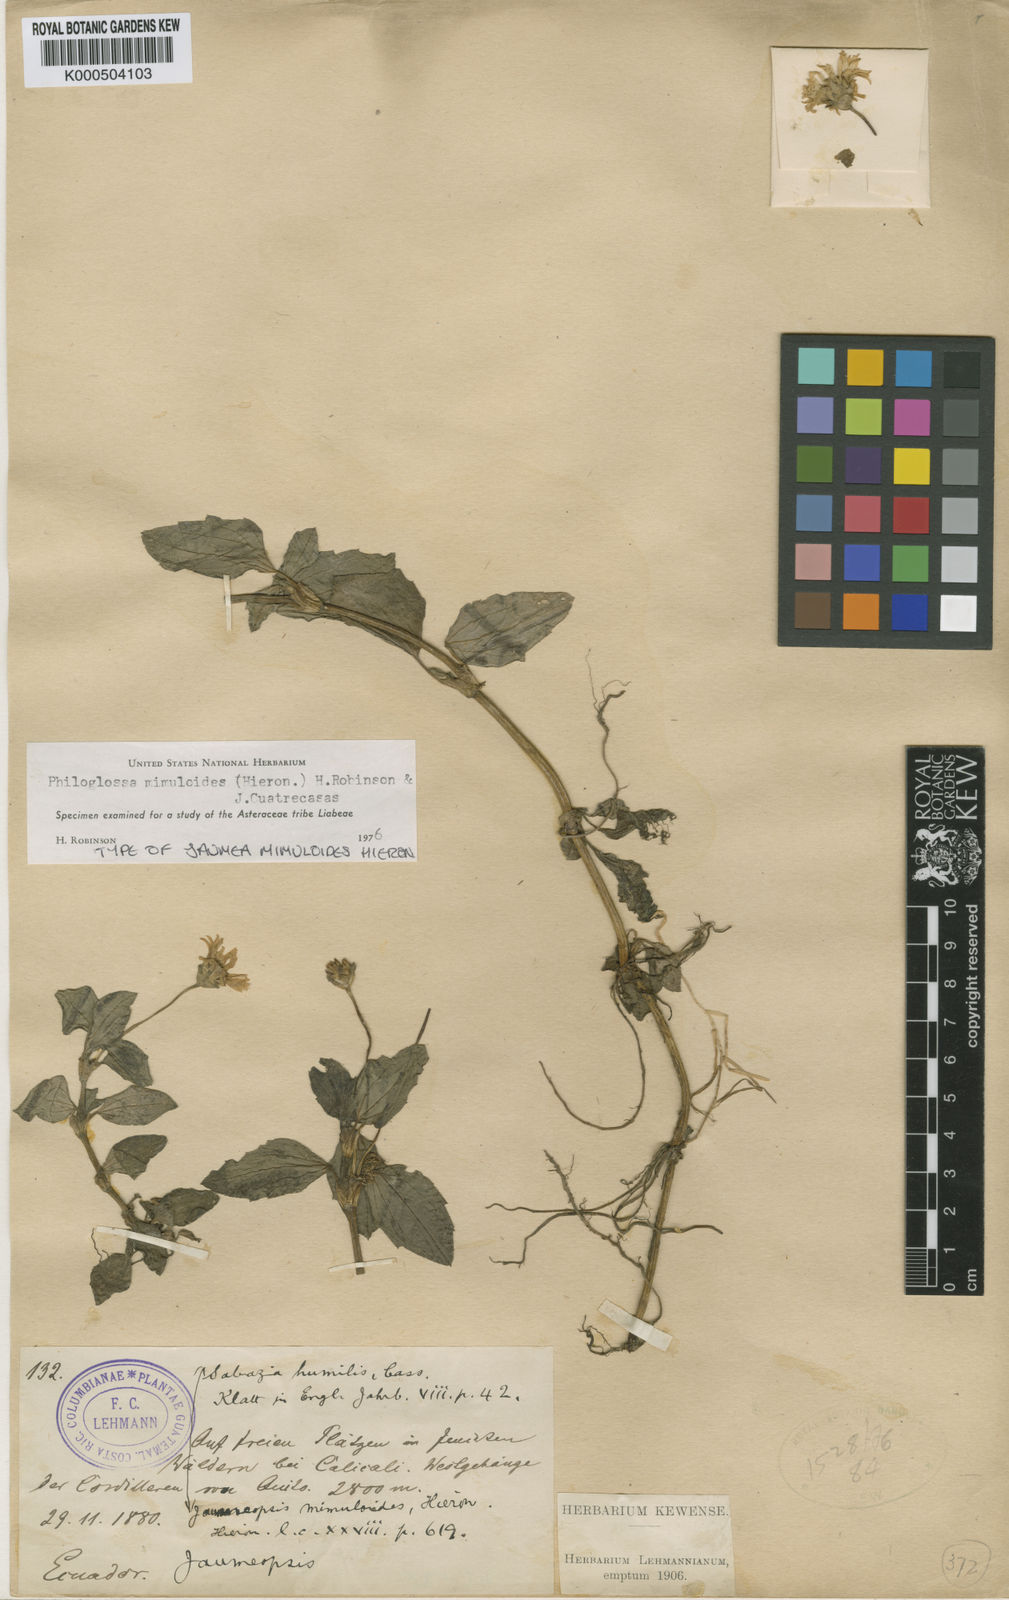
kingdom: Plantae
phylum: Tracheophyta
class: Magnoliopsida
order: Asterales
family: Asteraceae
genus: Philoglossa
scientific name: Philoglossa mimuloides
